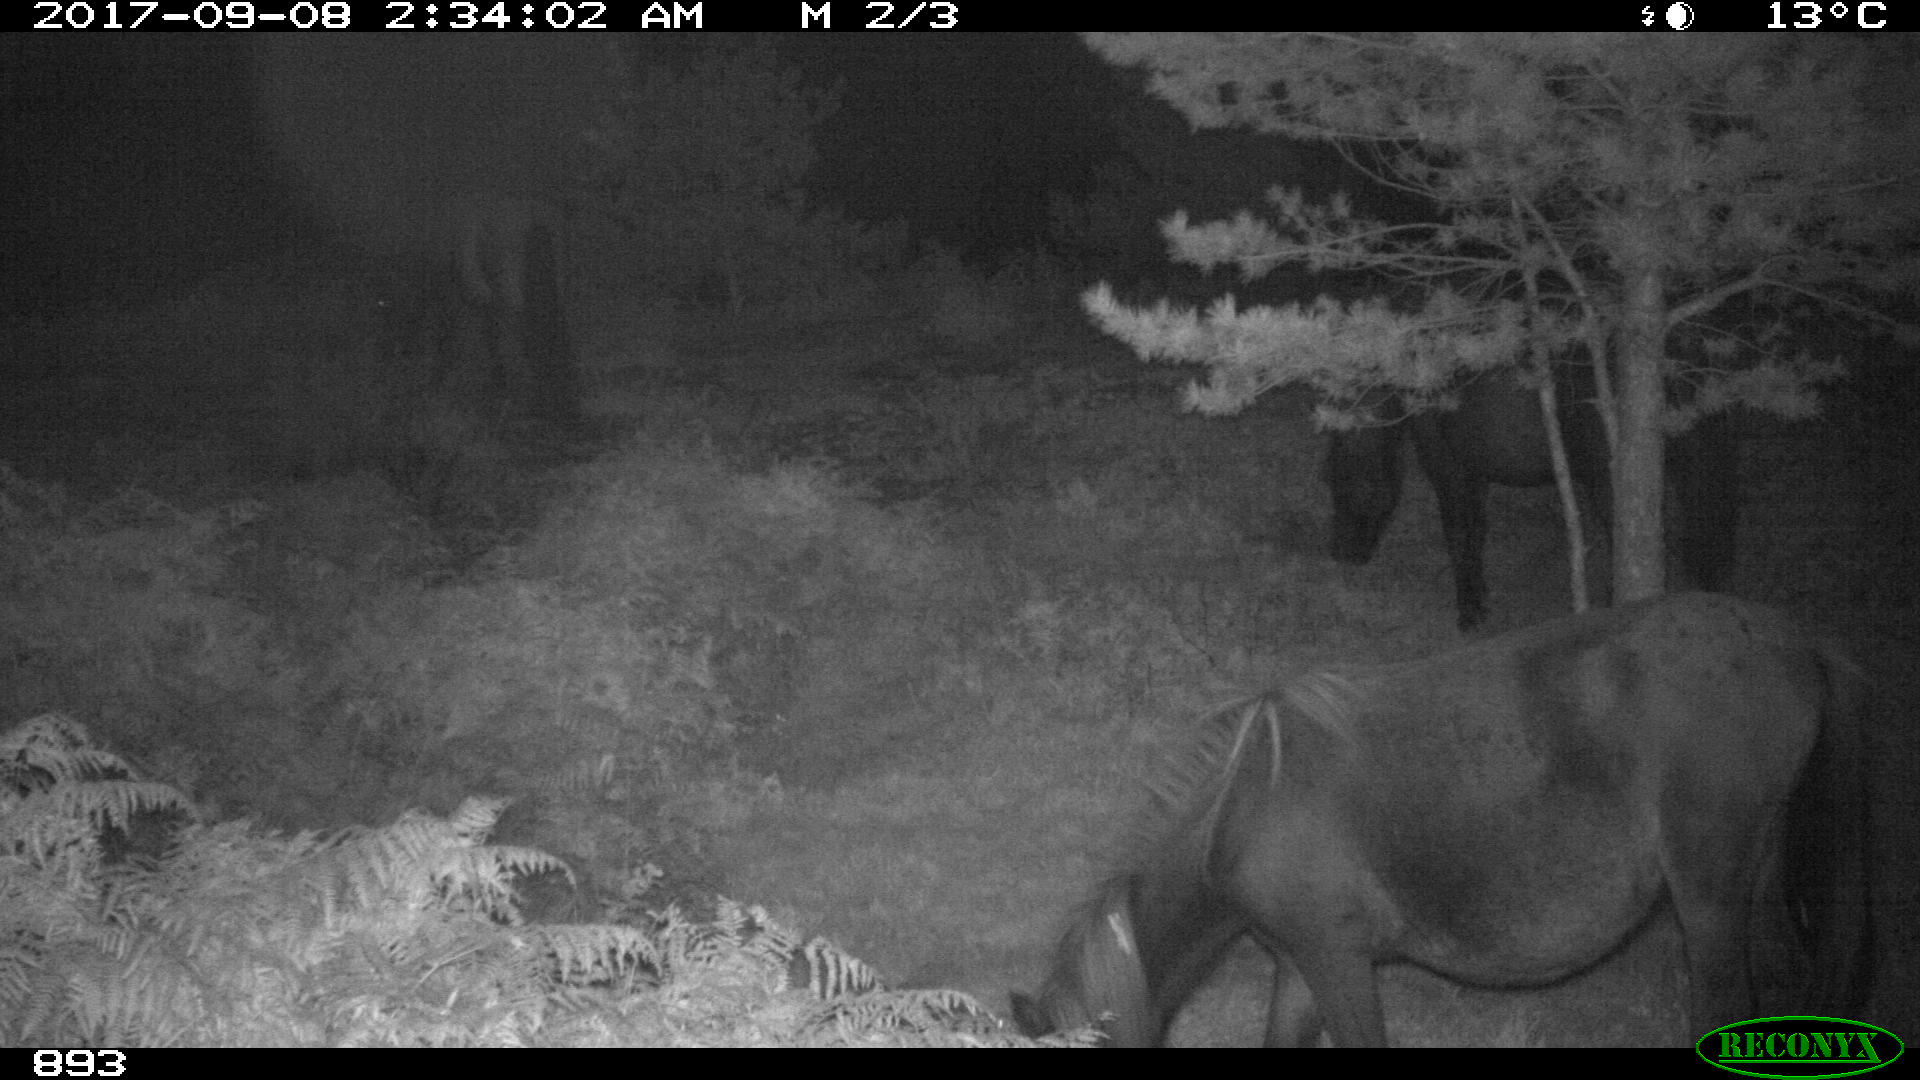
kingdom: Animalia
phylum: Chordata
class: Mammalia
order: Perissodactyla
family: Equidae
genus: Equus
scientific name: Equus caballus
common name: Horse
